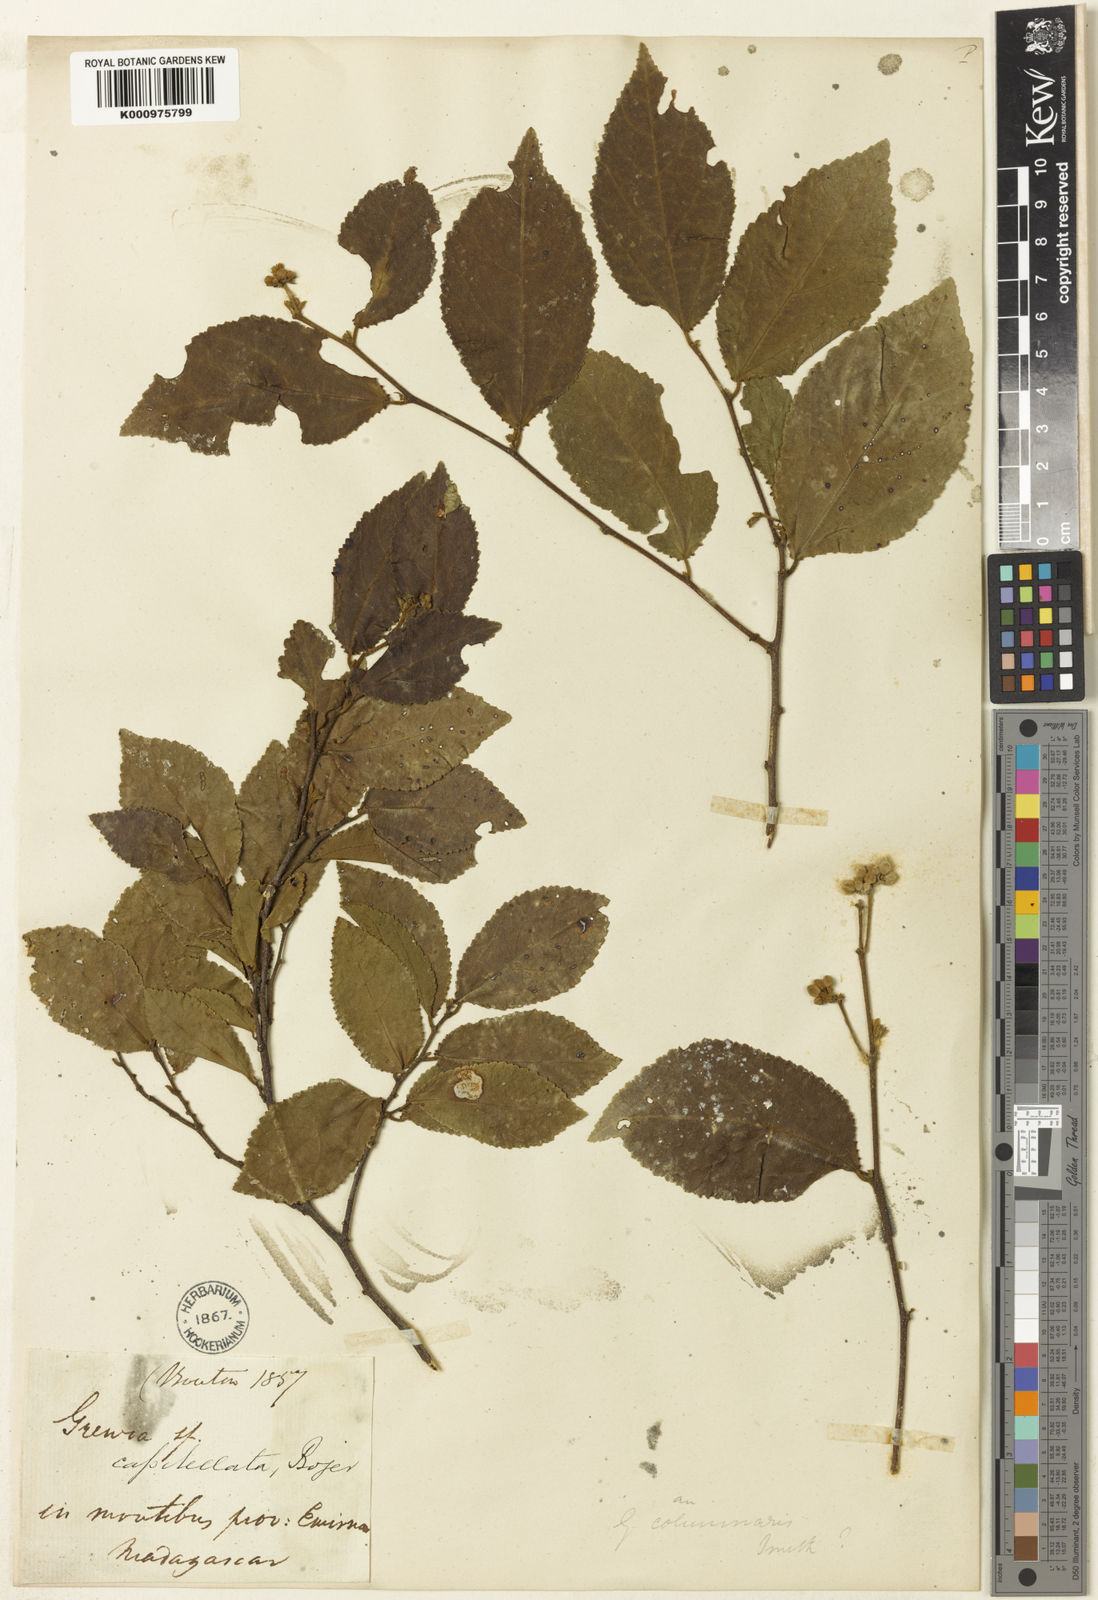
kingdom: Plantae
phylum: Tracheophyta
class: Magnoliopsida
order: Malvales
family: Malvaceae
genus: Grewia
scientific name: Grewia capitellata
